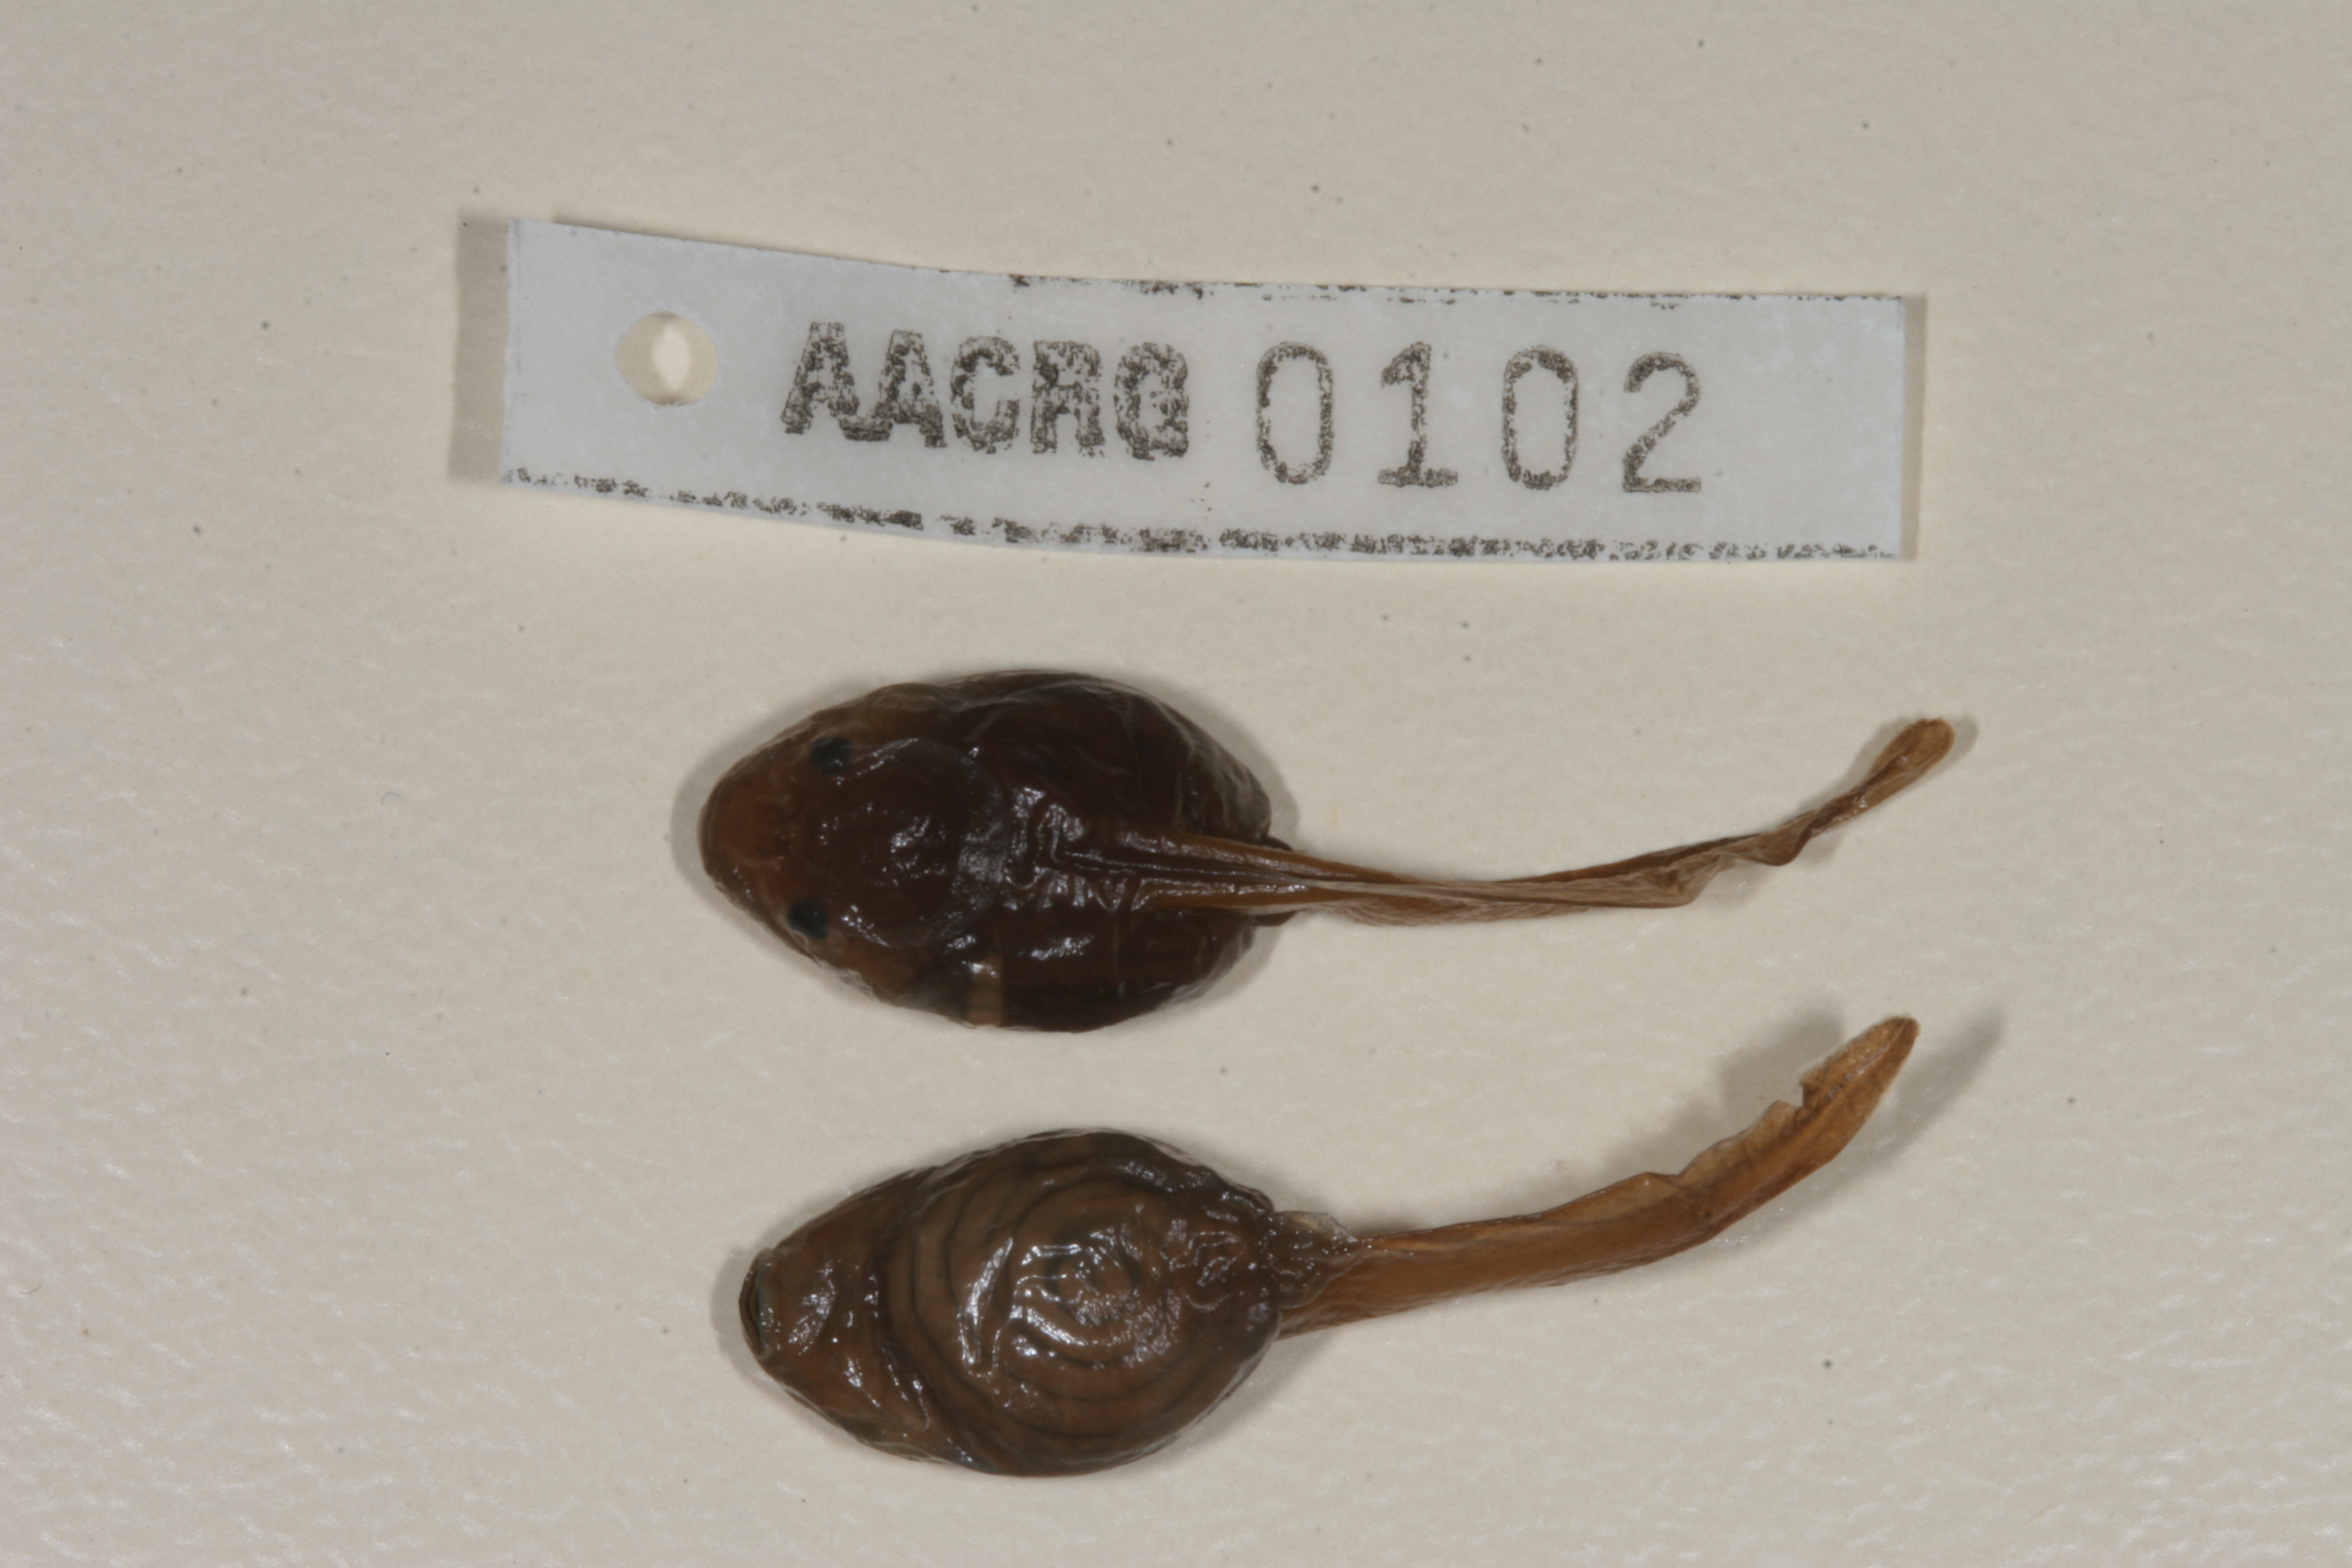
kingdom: Animalia
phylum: Chordata
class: Amphibia
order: Anura
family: Bufonidae
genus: Schismaderma
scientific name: Schismaderma carens
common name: African split-skin toad
